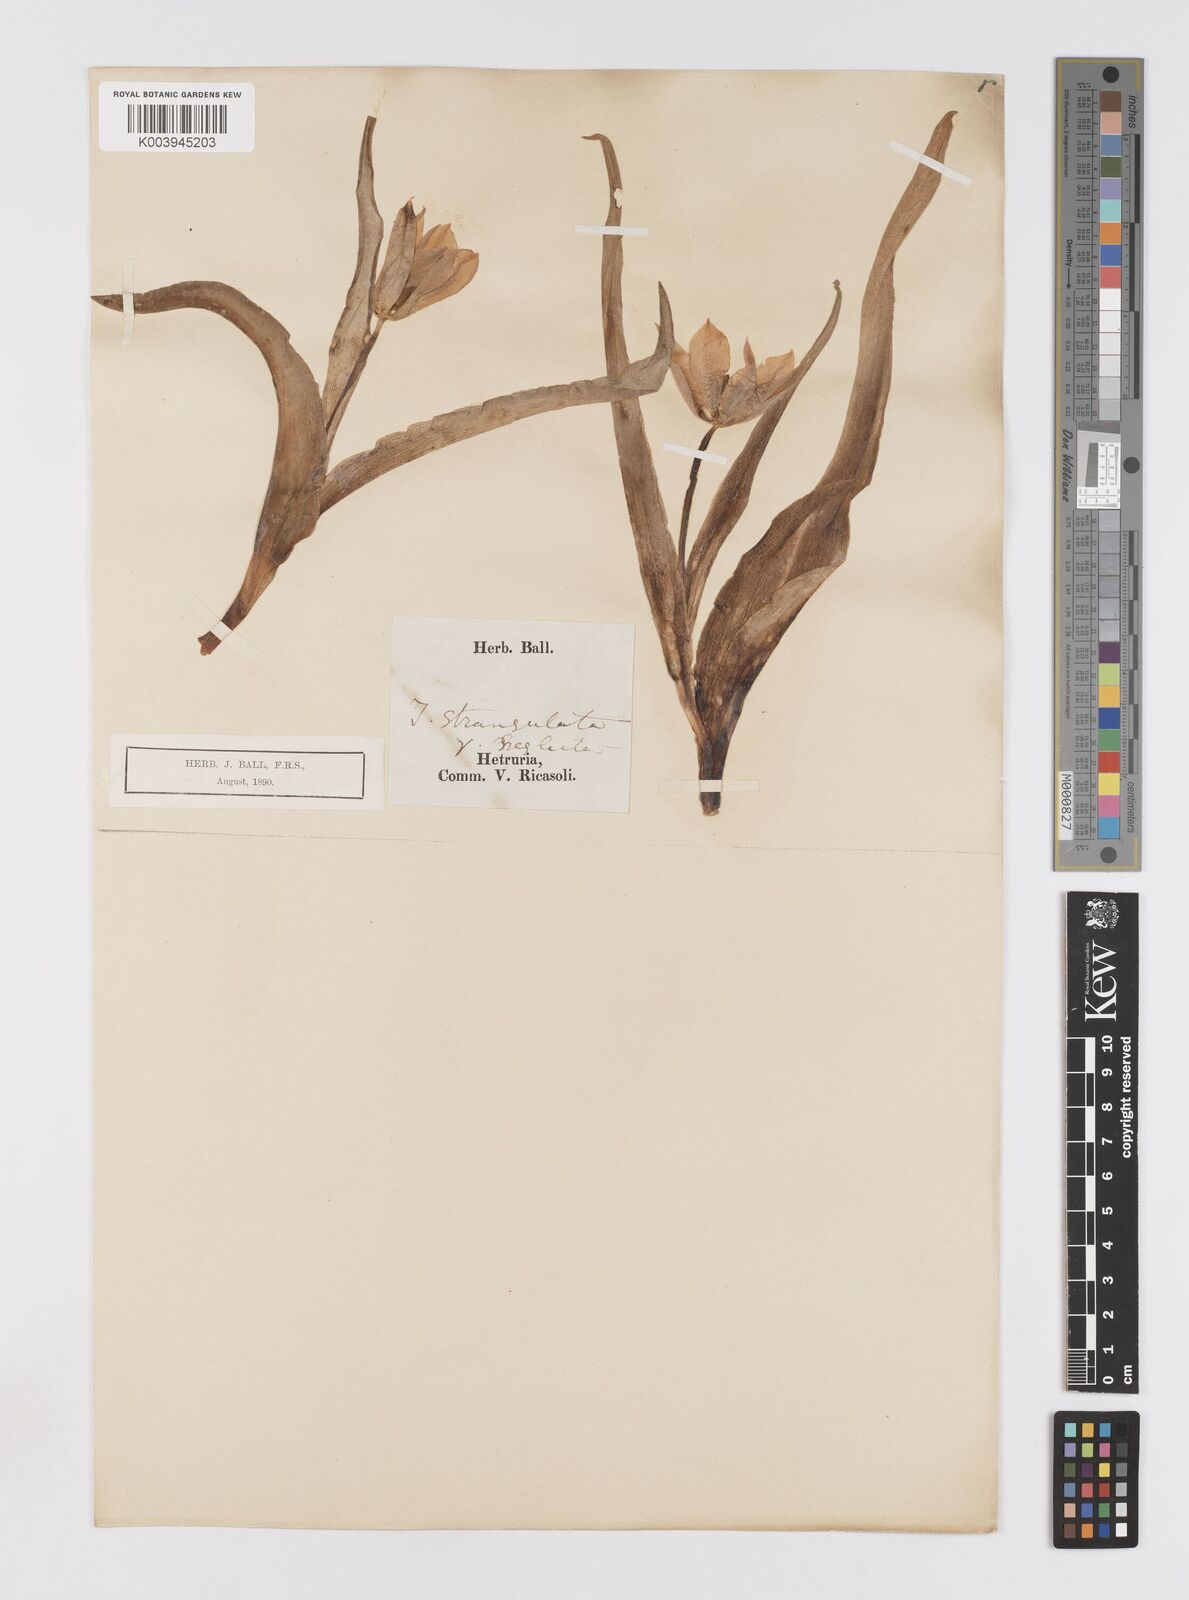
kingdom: Plantae
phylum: Tracheophyta
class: Liliopsida
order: Liliales
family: Liliaceae
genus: Tulipa
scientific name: Tulipa
